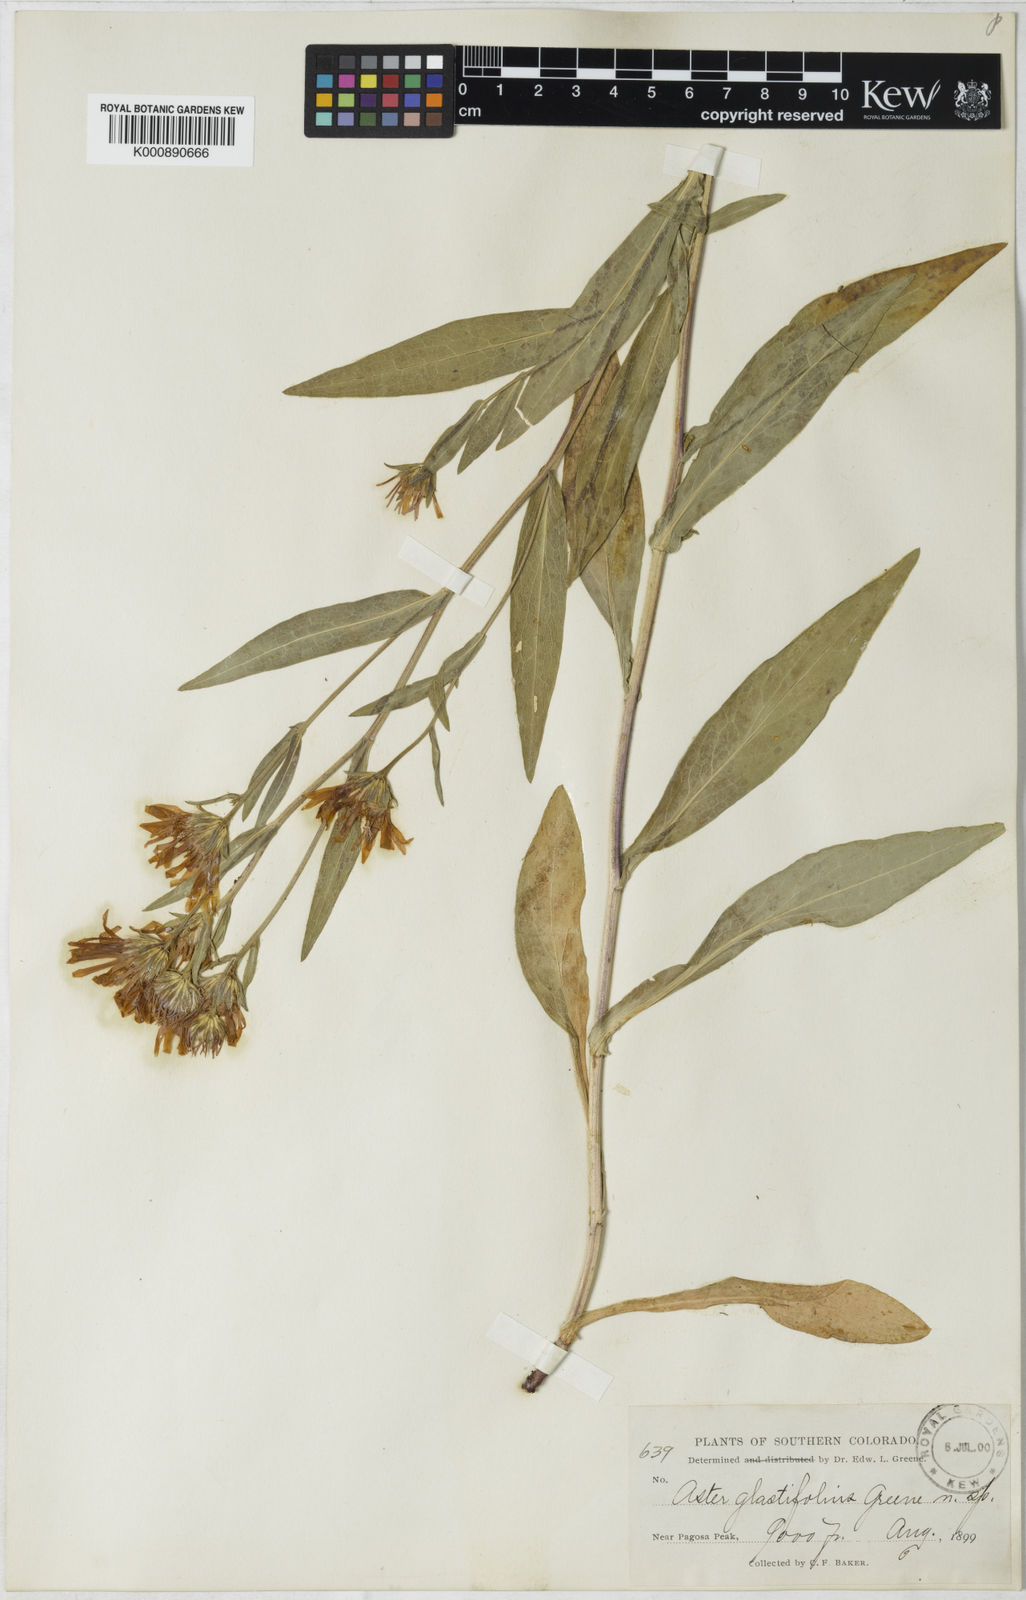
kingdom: Plantae
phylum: Tracheophyta
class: Magnoliopsida
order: Asterales
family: Asteraceae
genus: Aster
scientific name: Aster glastifolius
